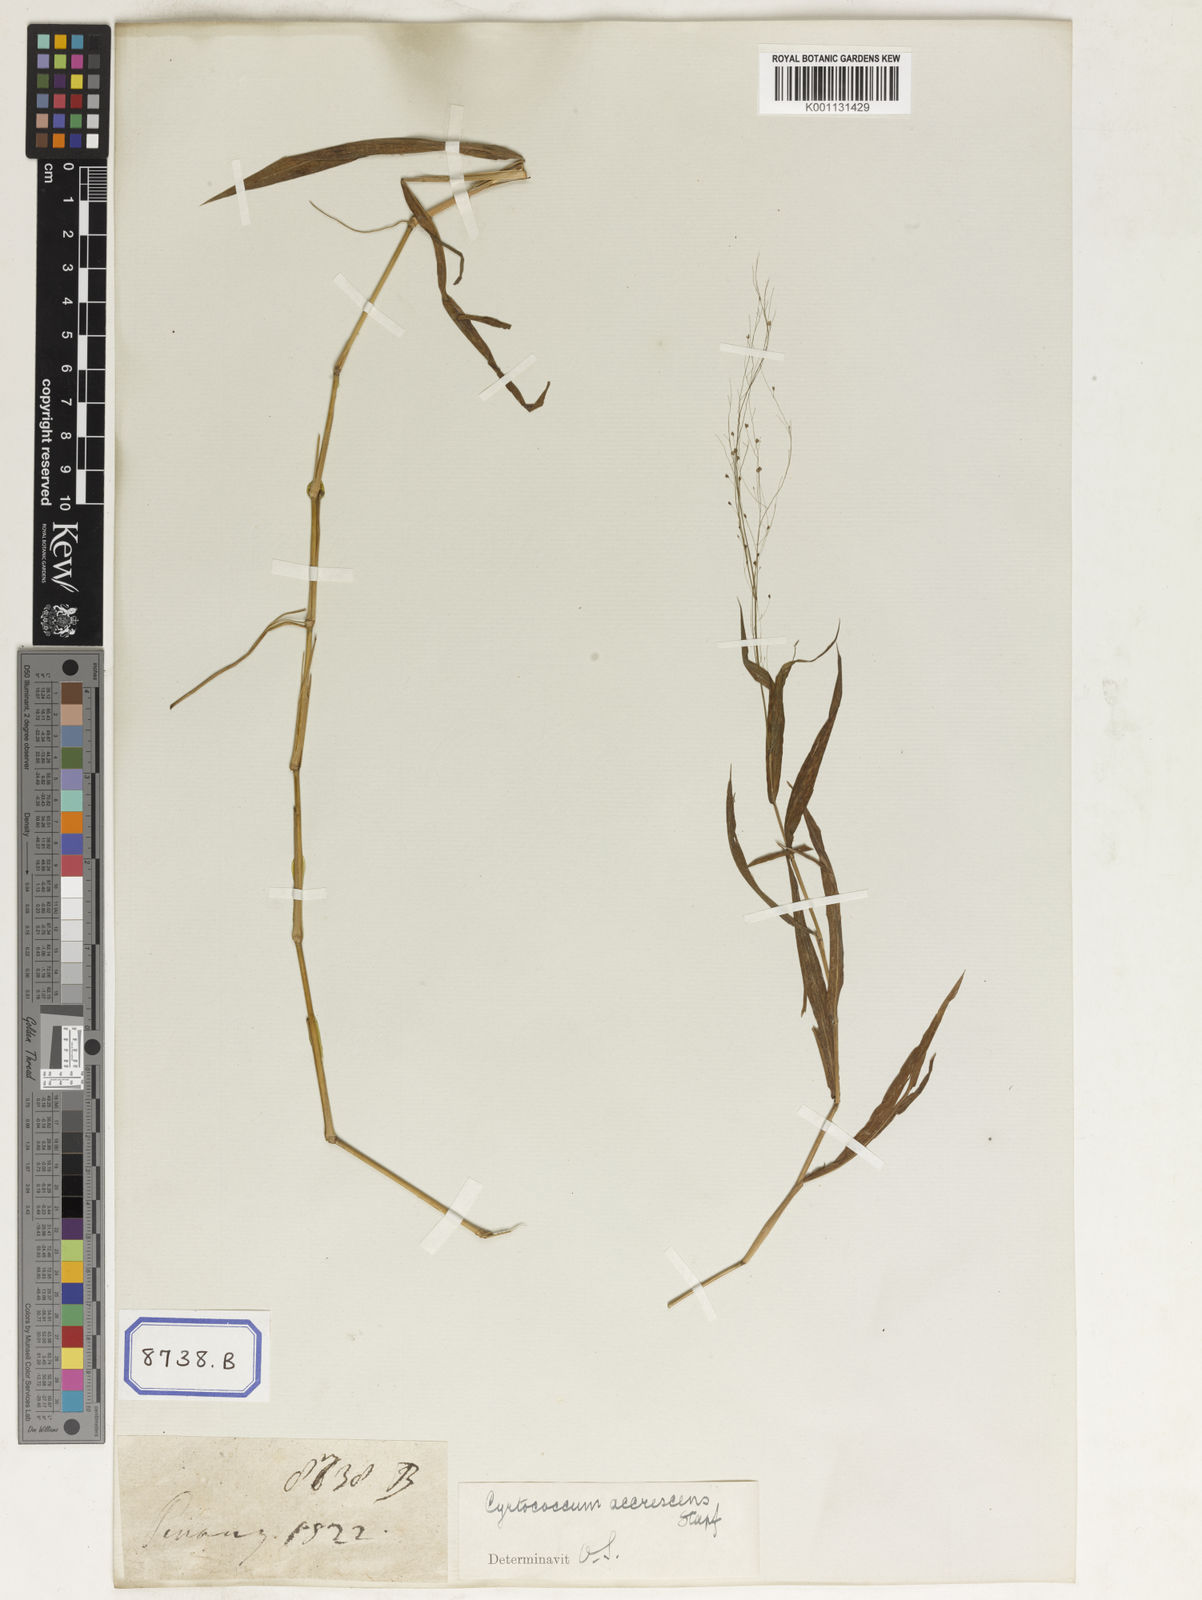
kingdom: Plantae
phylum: Tracheophyta
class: Liliopsida
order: Poales
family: Poaceae
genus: Panicum
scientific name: Panicum
